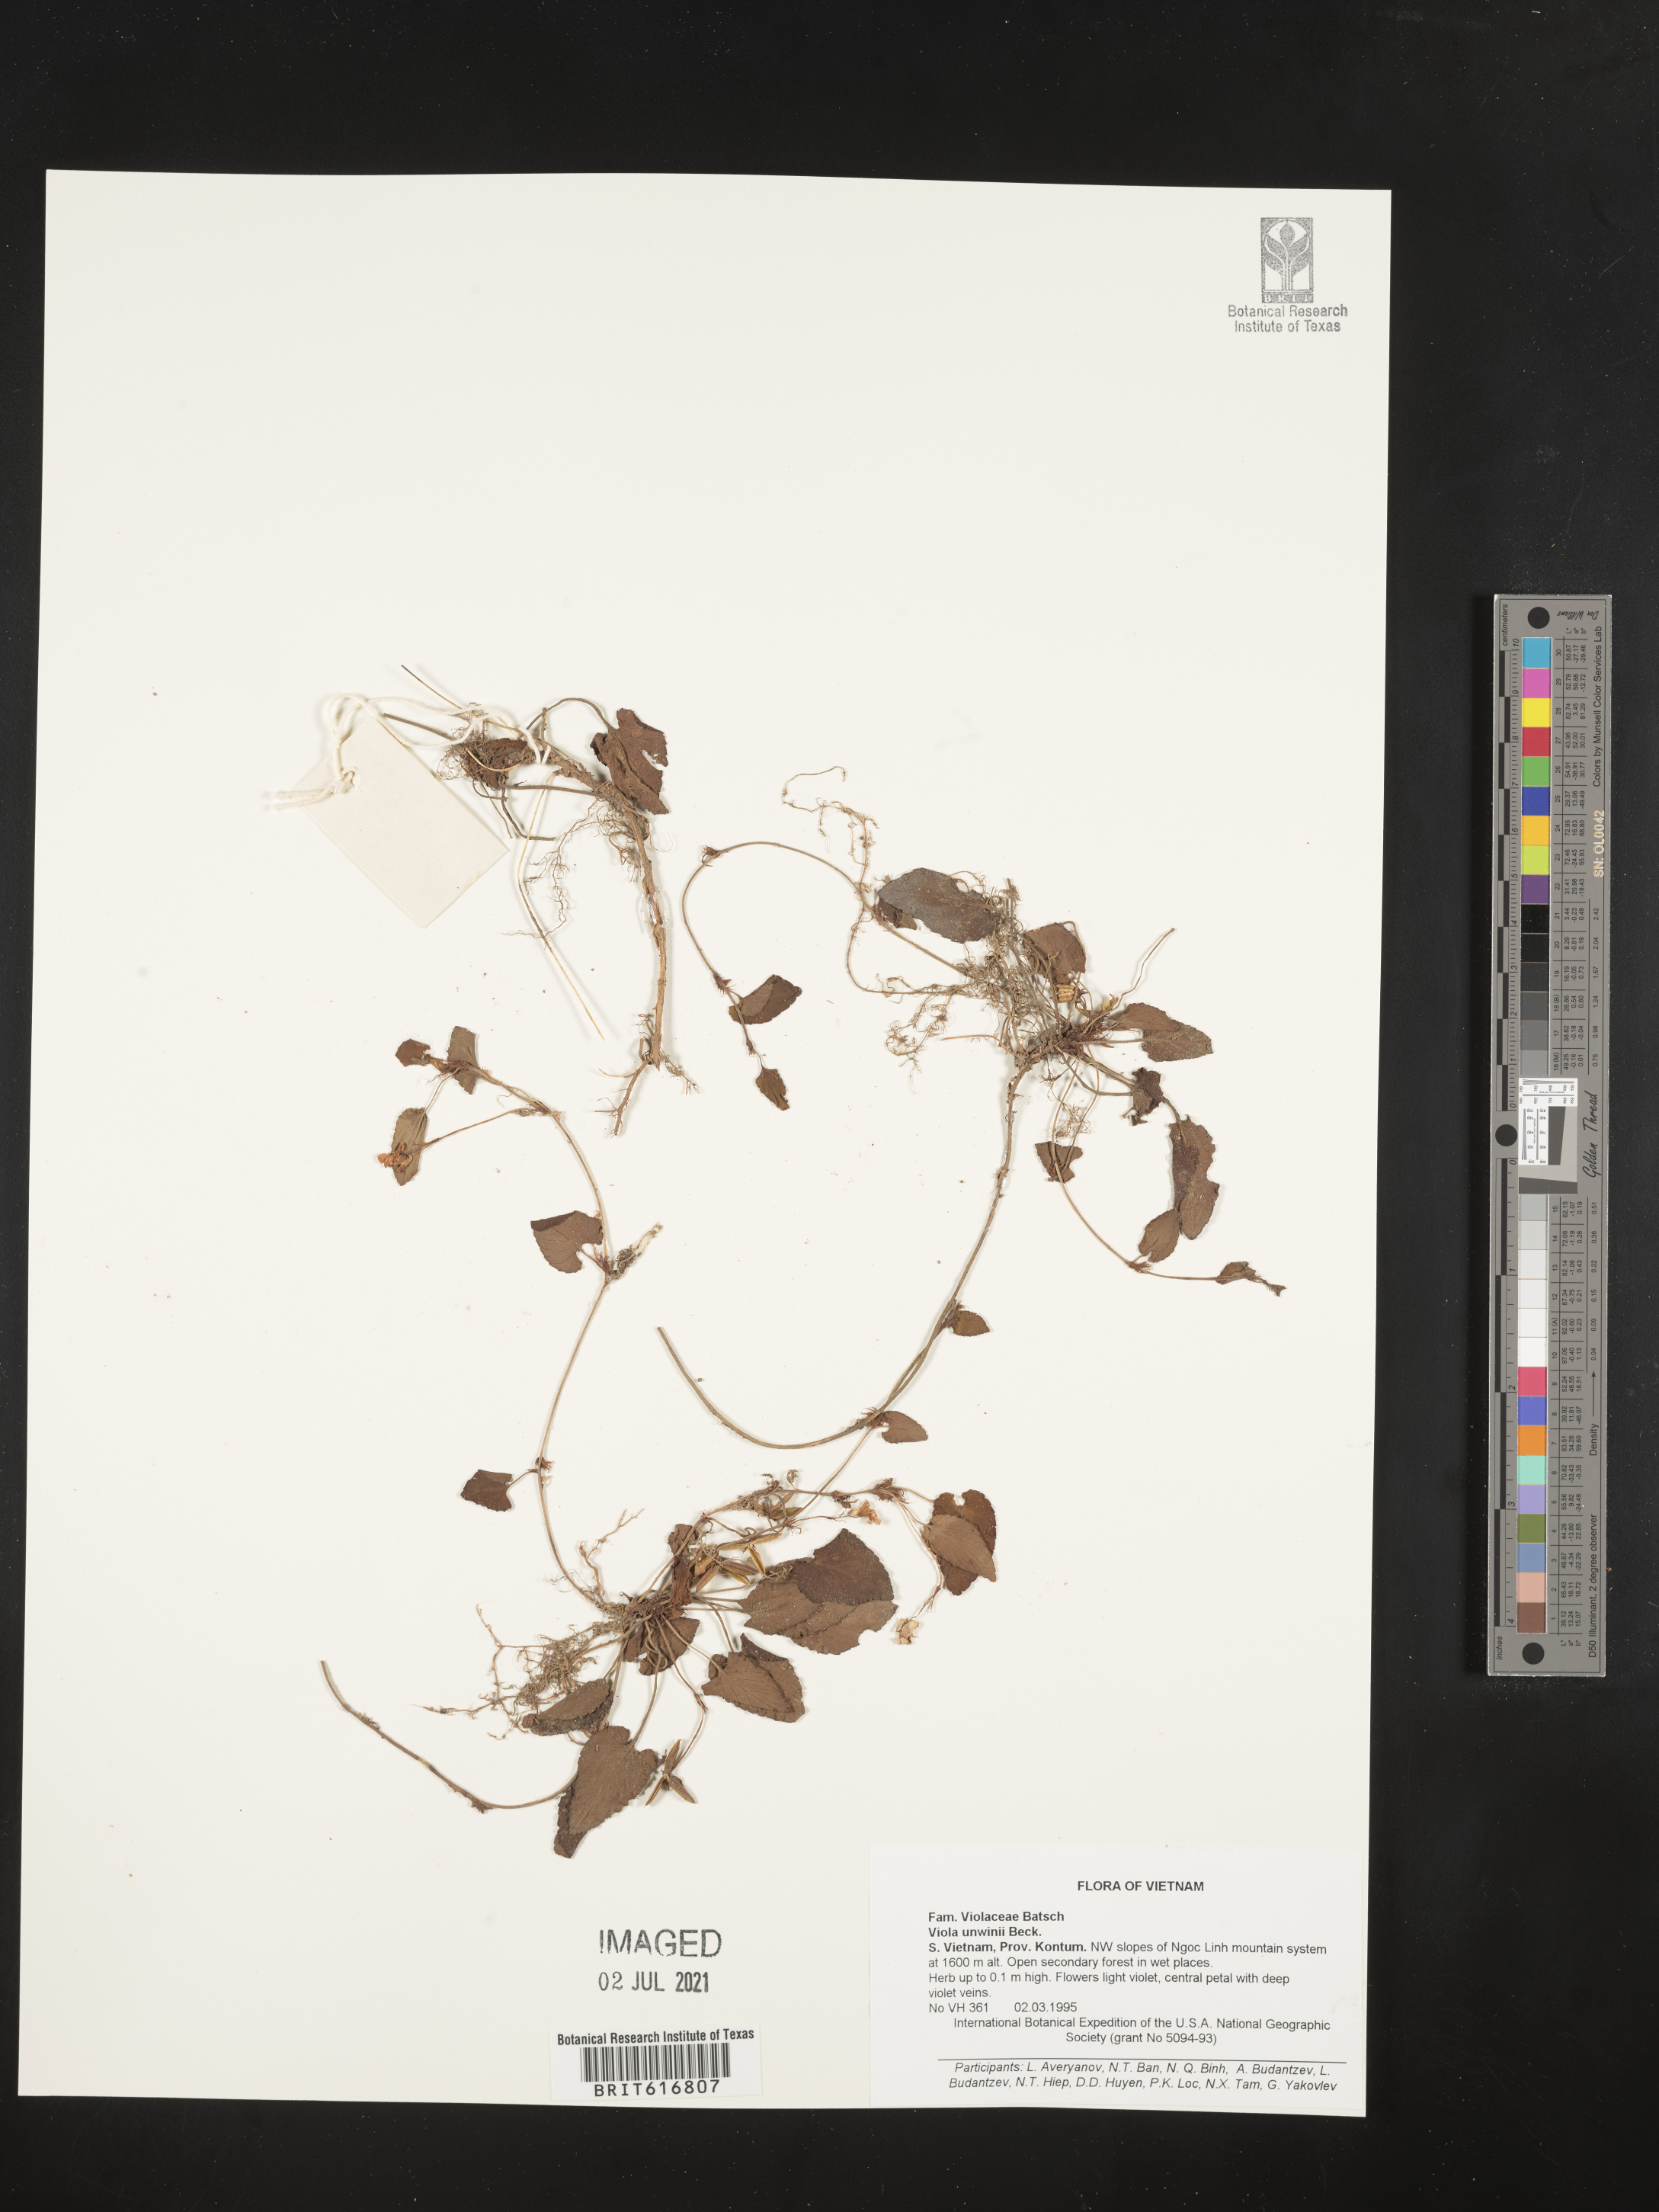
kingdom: Plantae
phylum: Tracheophyta
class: Magnoliopsida
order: Malpighiales
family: Violaceae
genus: Viola
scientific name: Viola hossei
